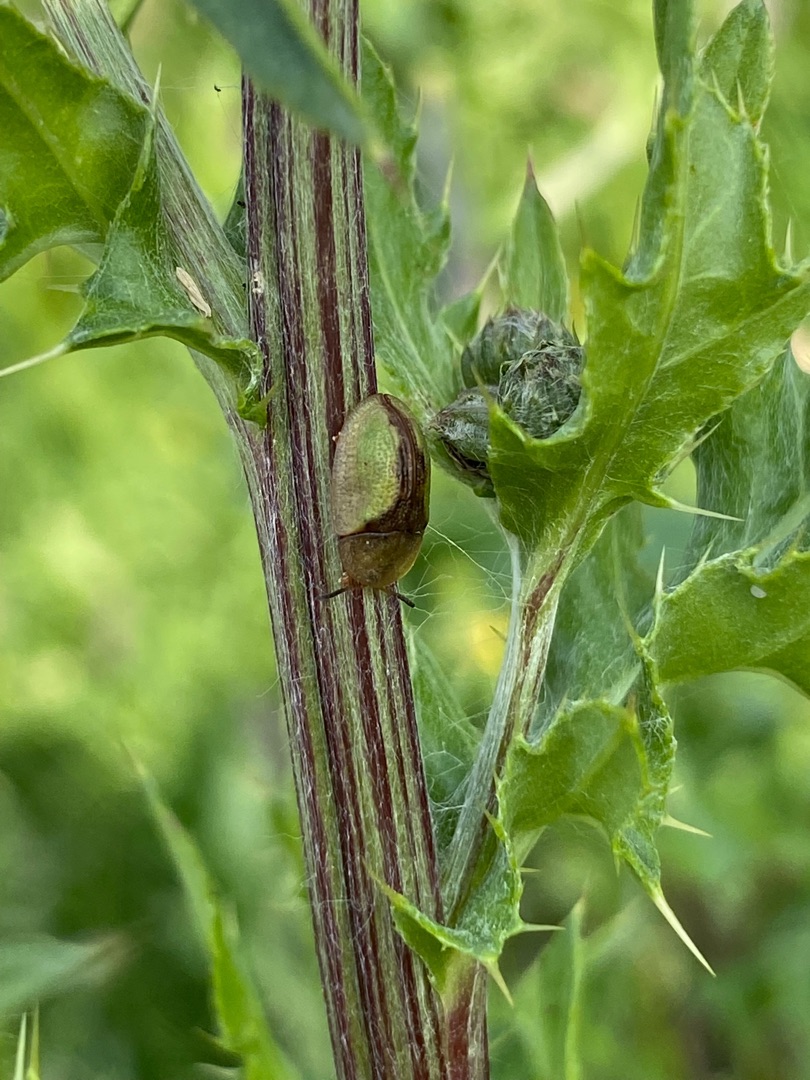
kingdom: Animalia
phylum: Arthropoda
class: Insecta
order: Coleoptera
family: Chrysomelidae
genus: Cassida
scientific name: Cassida vibex
